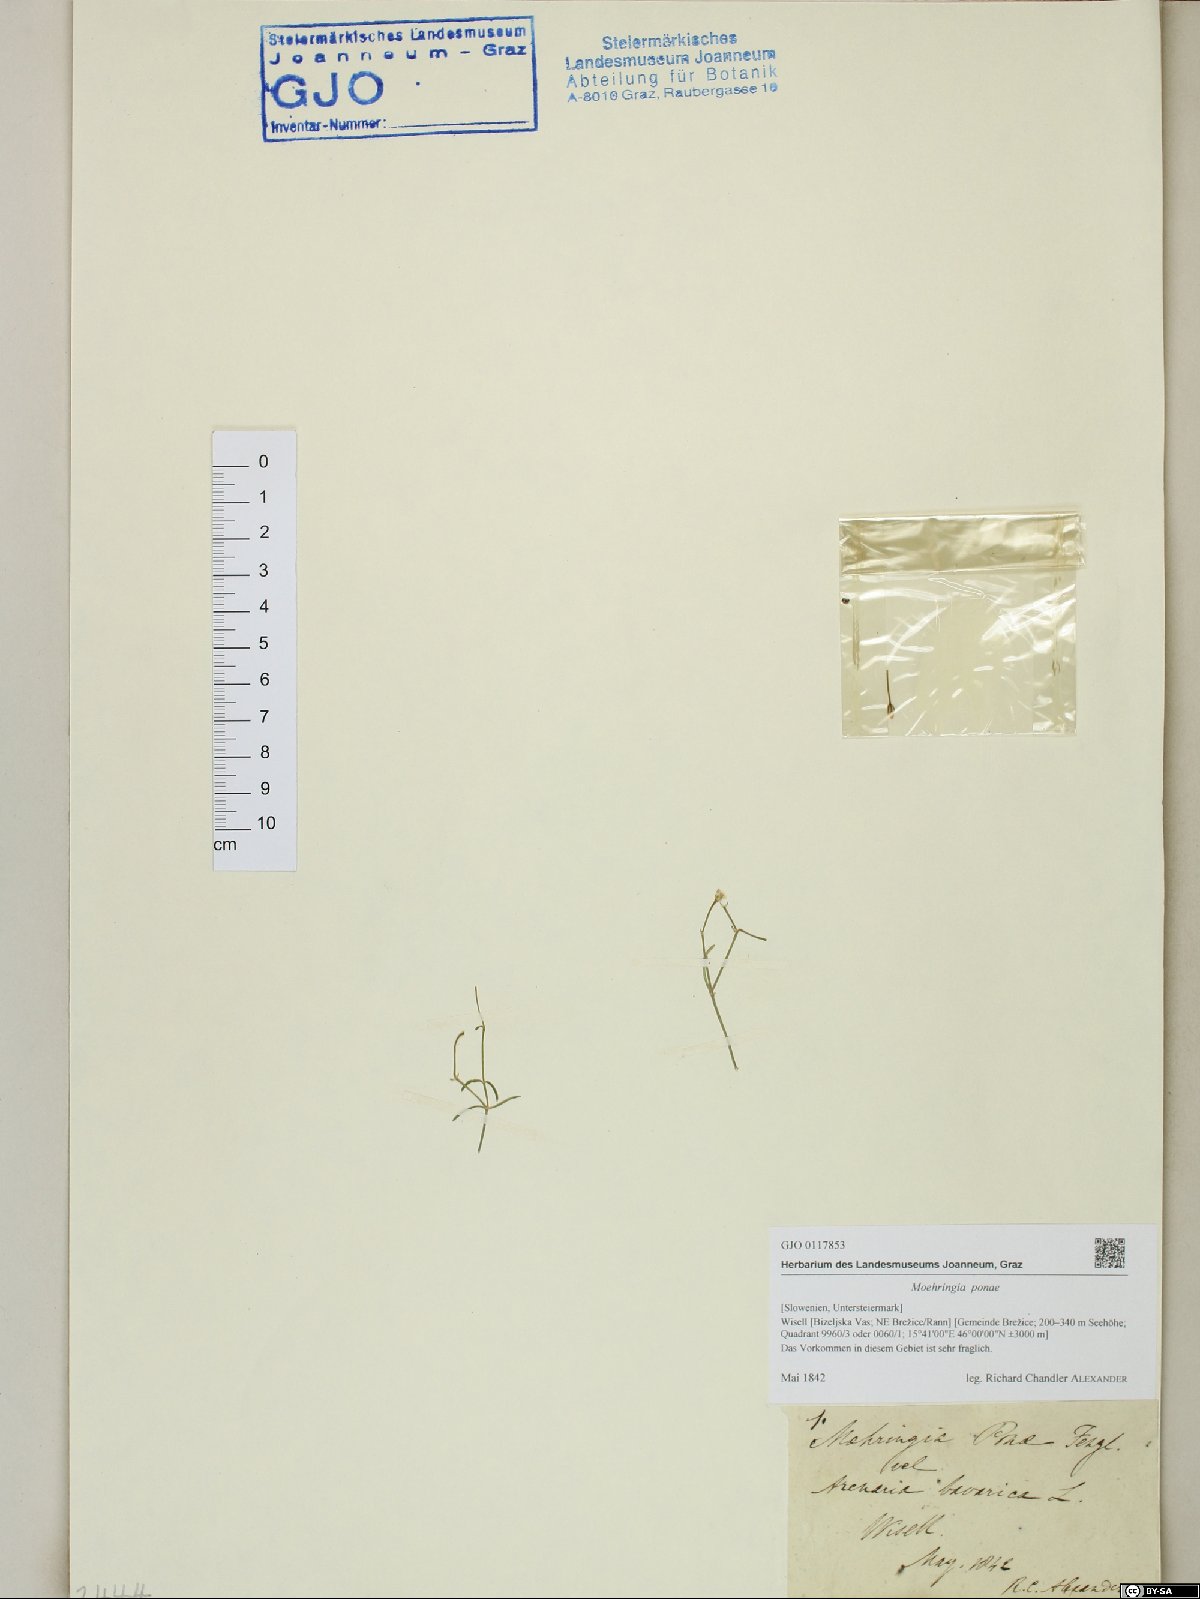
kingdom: Plantae
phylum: Tracheophyta
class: Magnoliopsida
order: Caryophyllales
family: Caryophyllaceae
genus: Moehringia
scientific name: Moehringia bavarica
